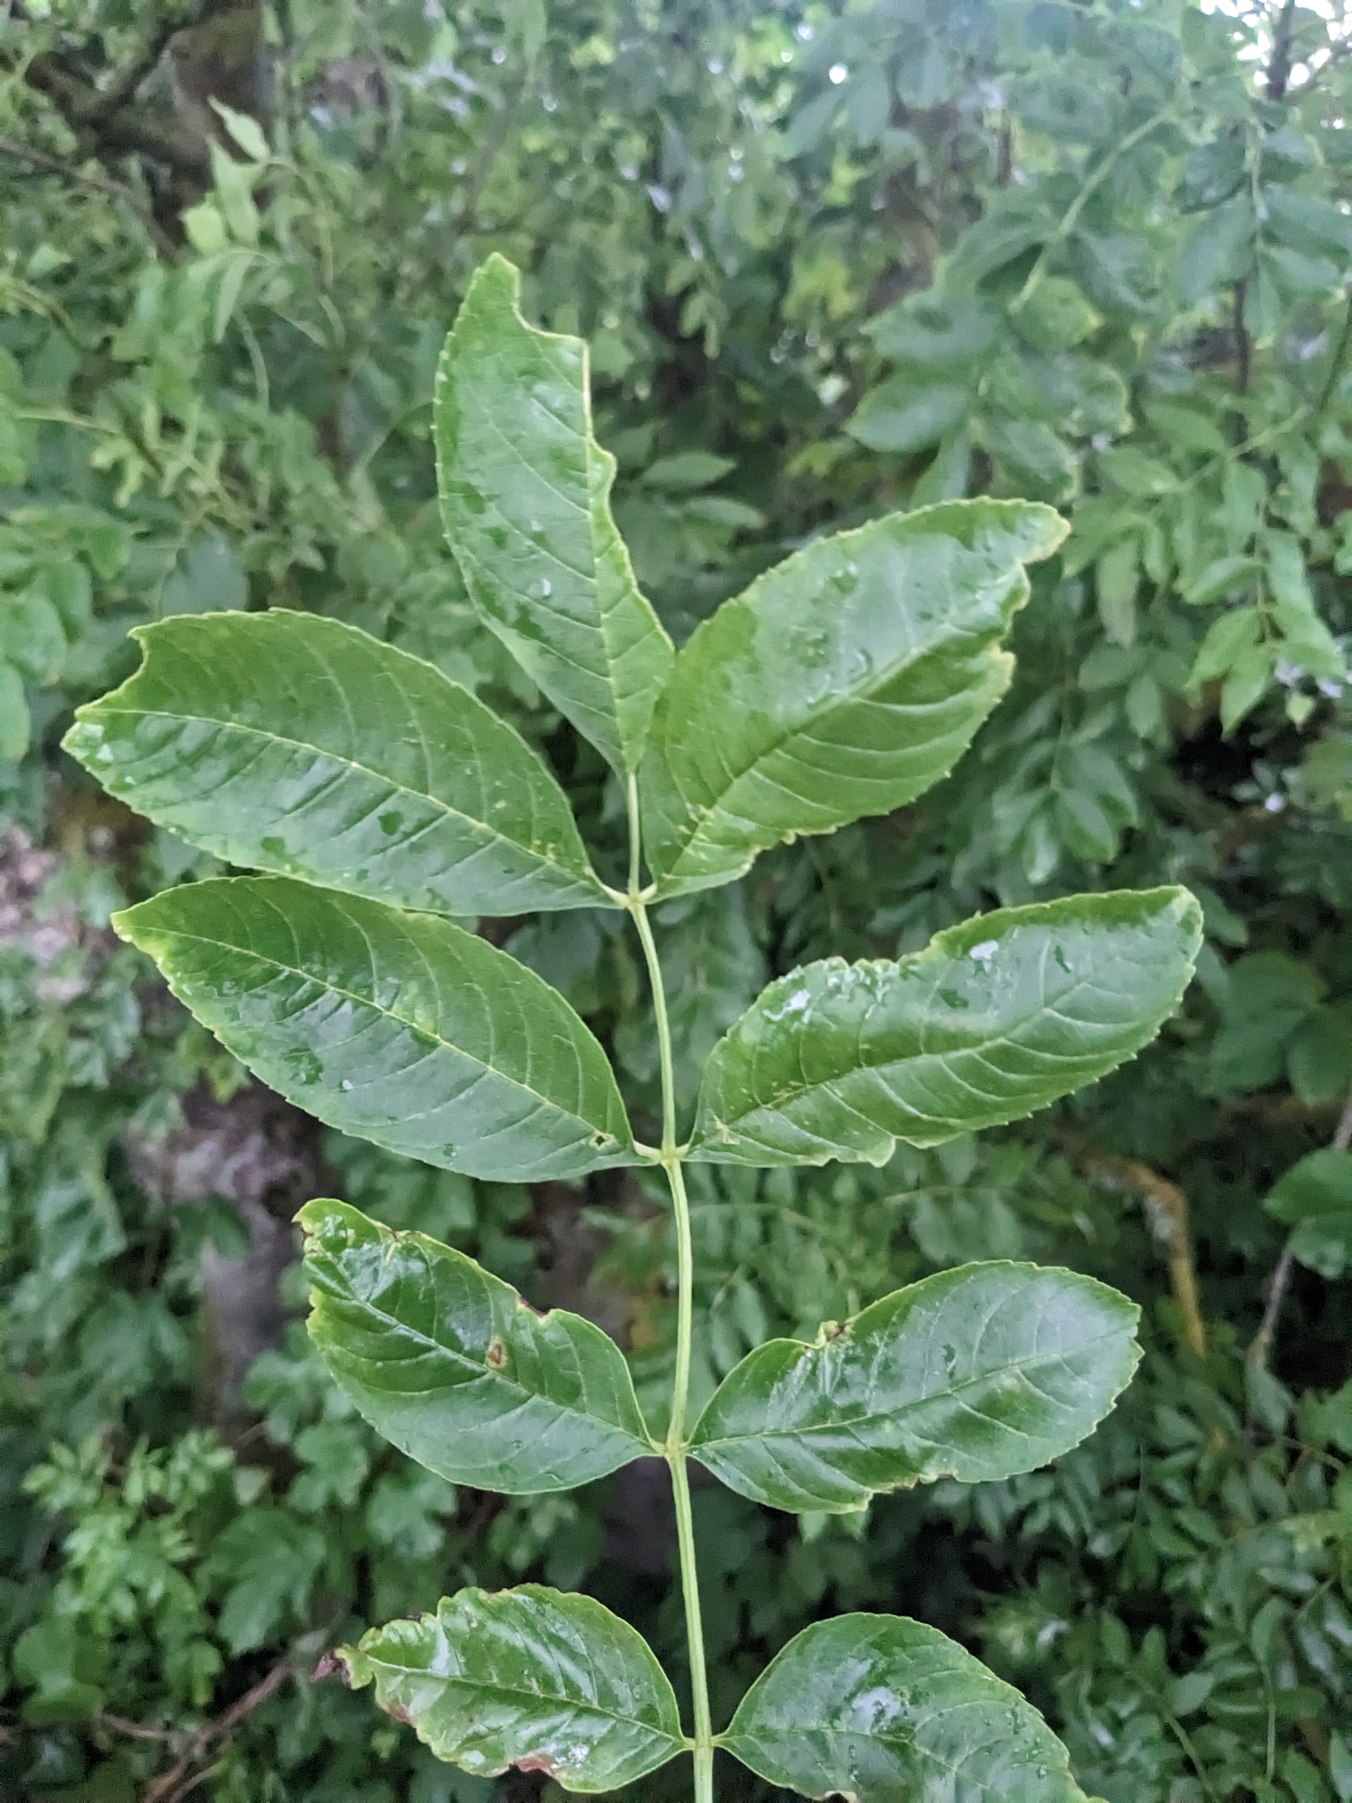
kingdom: Plantae
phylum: Tracheophyta
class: Magnoliopsida
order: Lamiales
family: Oleaceae
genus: Fraxinus
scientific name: Fraxinus excelsior
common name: Ask
